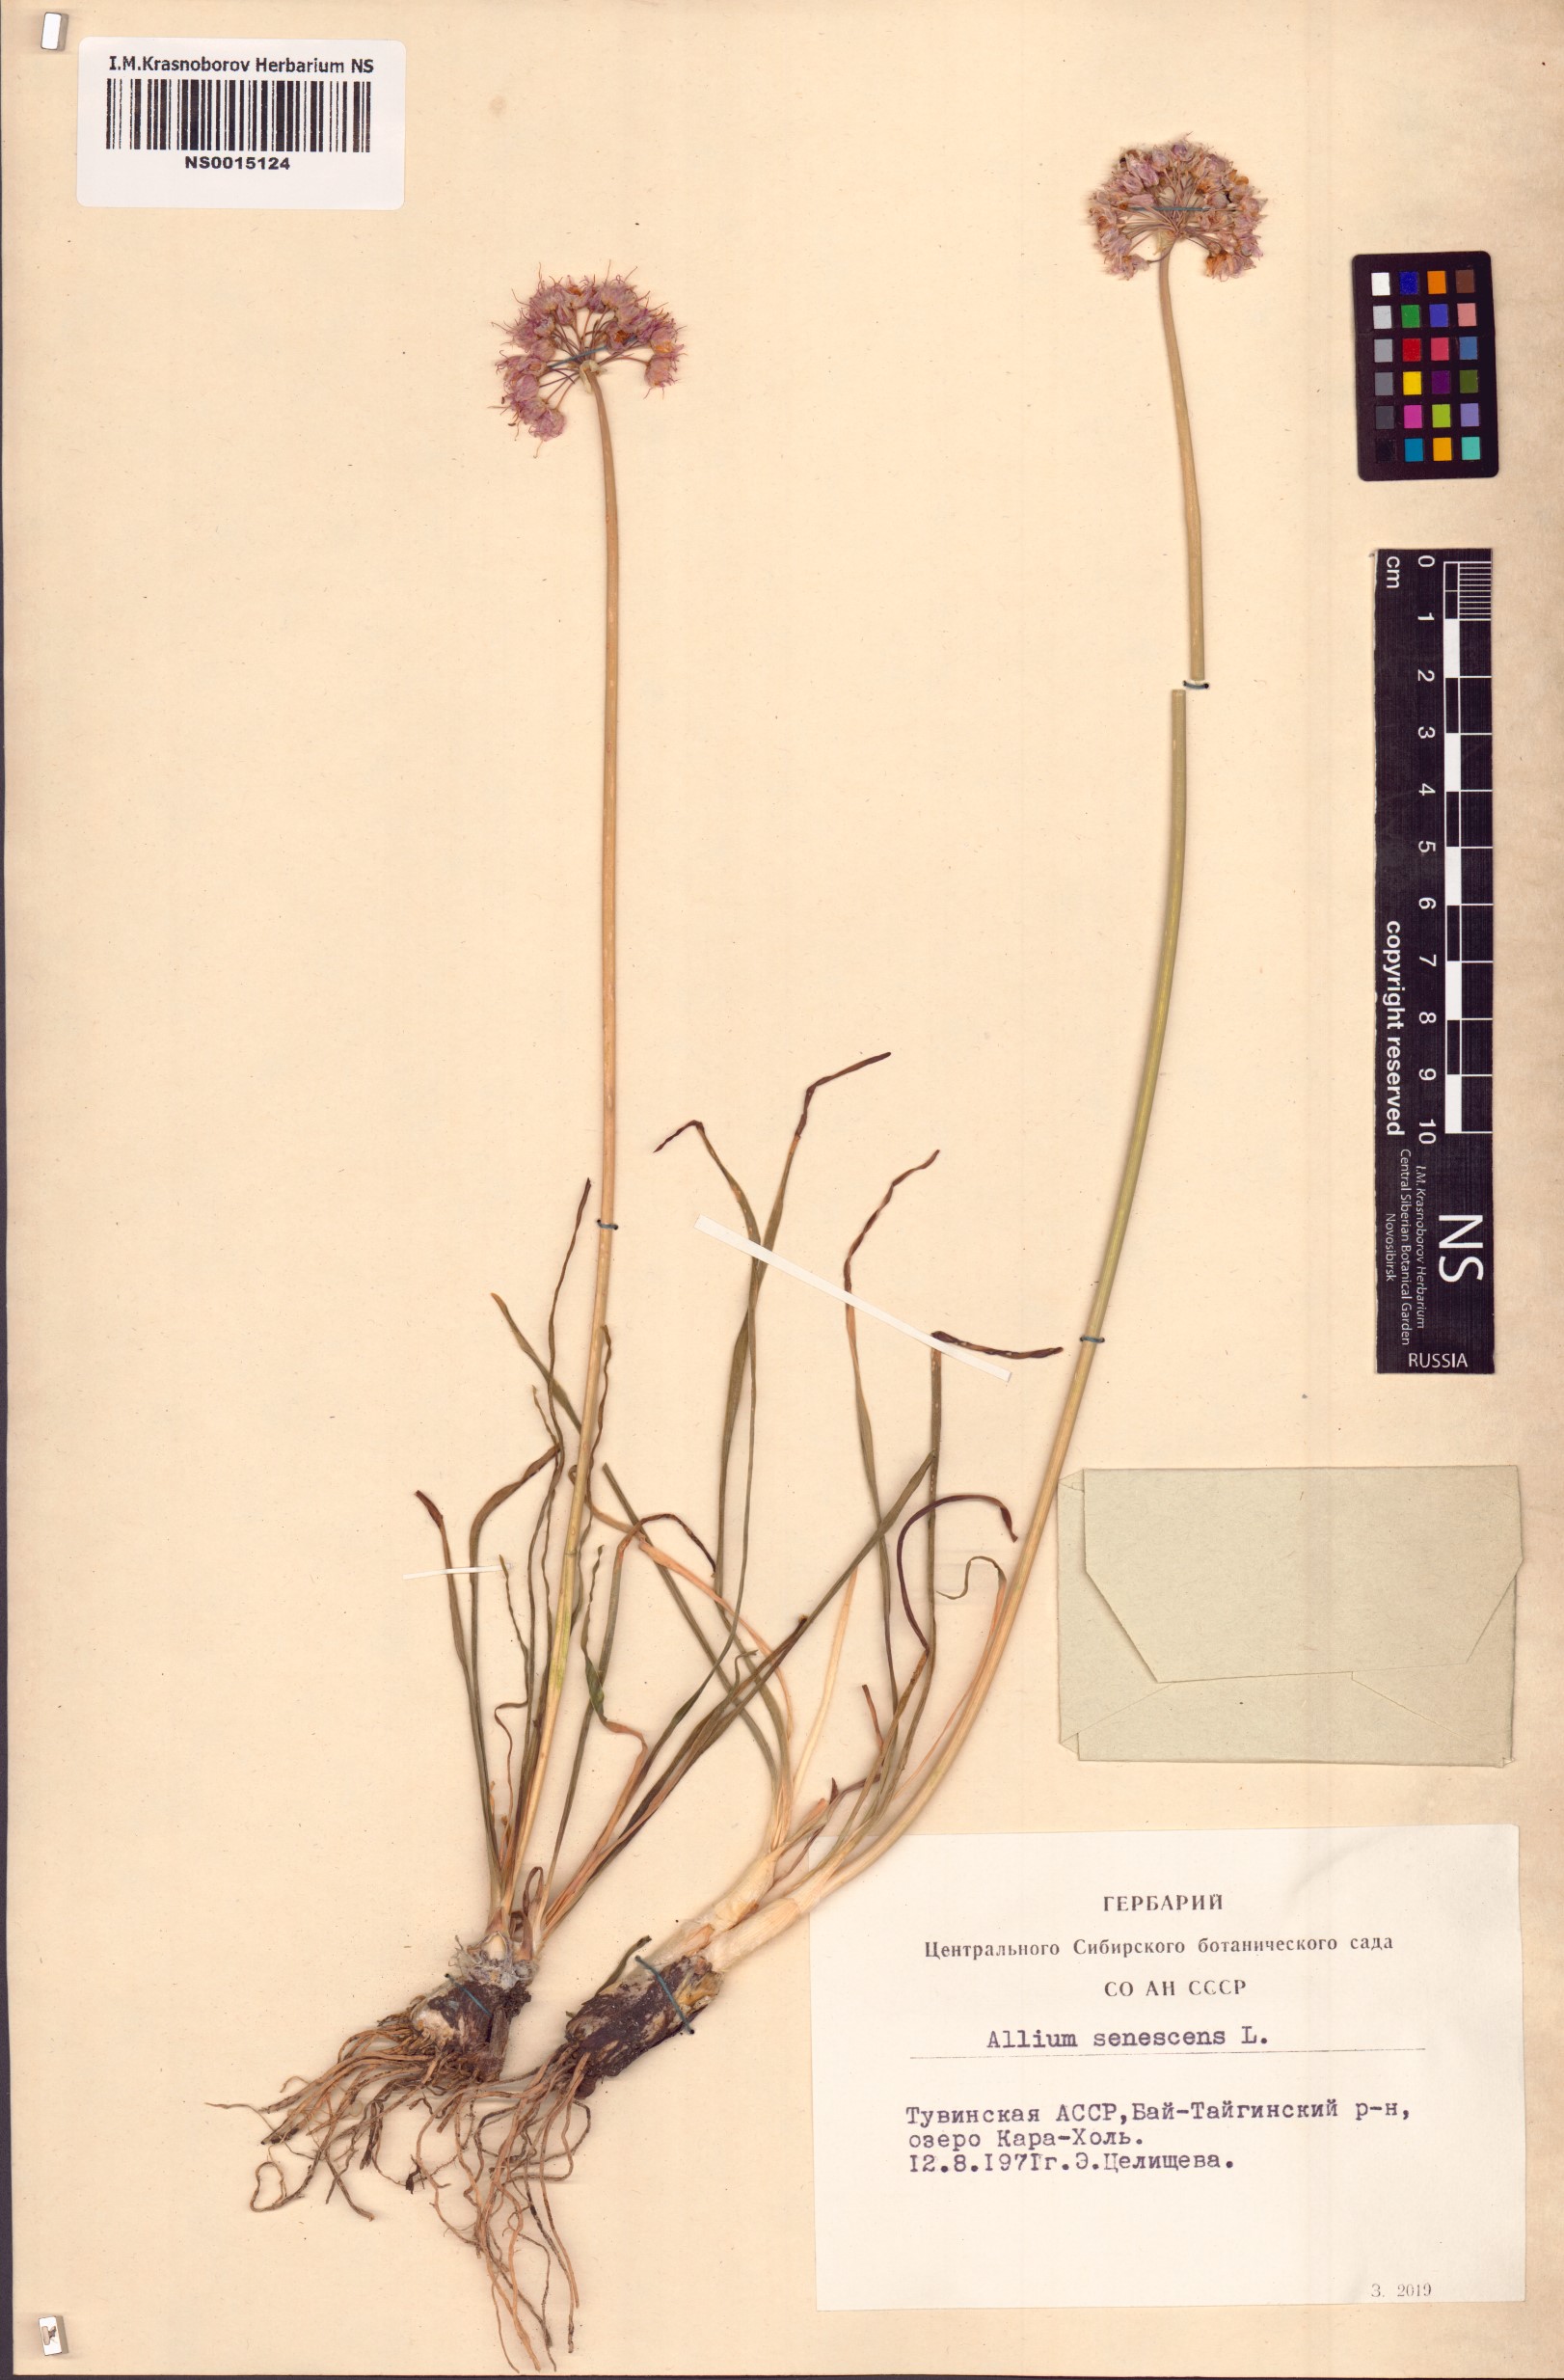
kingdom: Plantae
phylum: Tracheophyta
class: Liliopsida
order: Asparagales
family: Amaryllidaceae
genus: Allium
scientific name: Allium senescens
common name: German garlic
